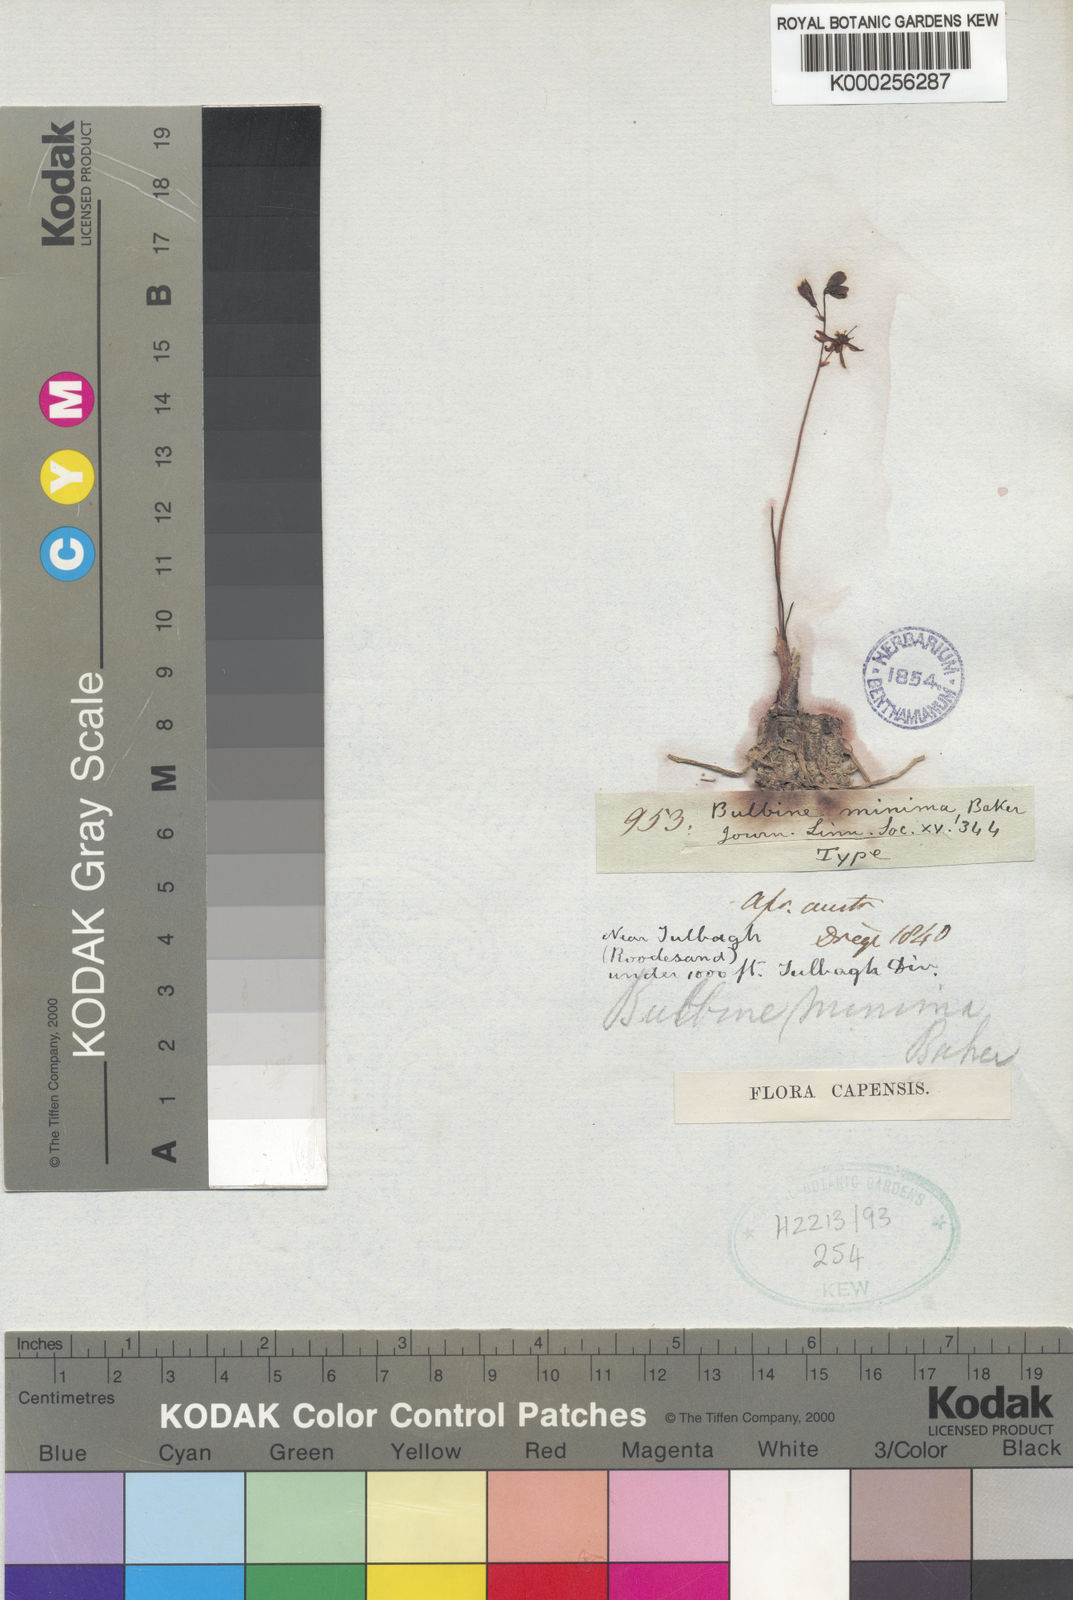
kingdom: Plantae
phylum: Tracheophyta
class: Liliopsida
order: Asparagales
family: Asphodelaceae
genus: Bulbine
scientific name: Bulbine favosa
